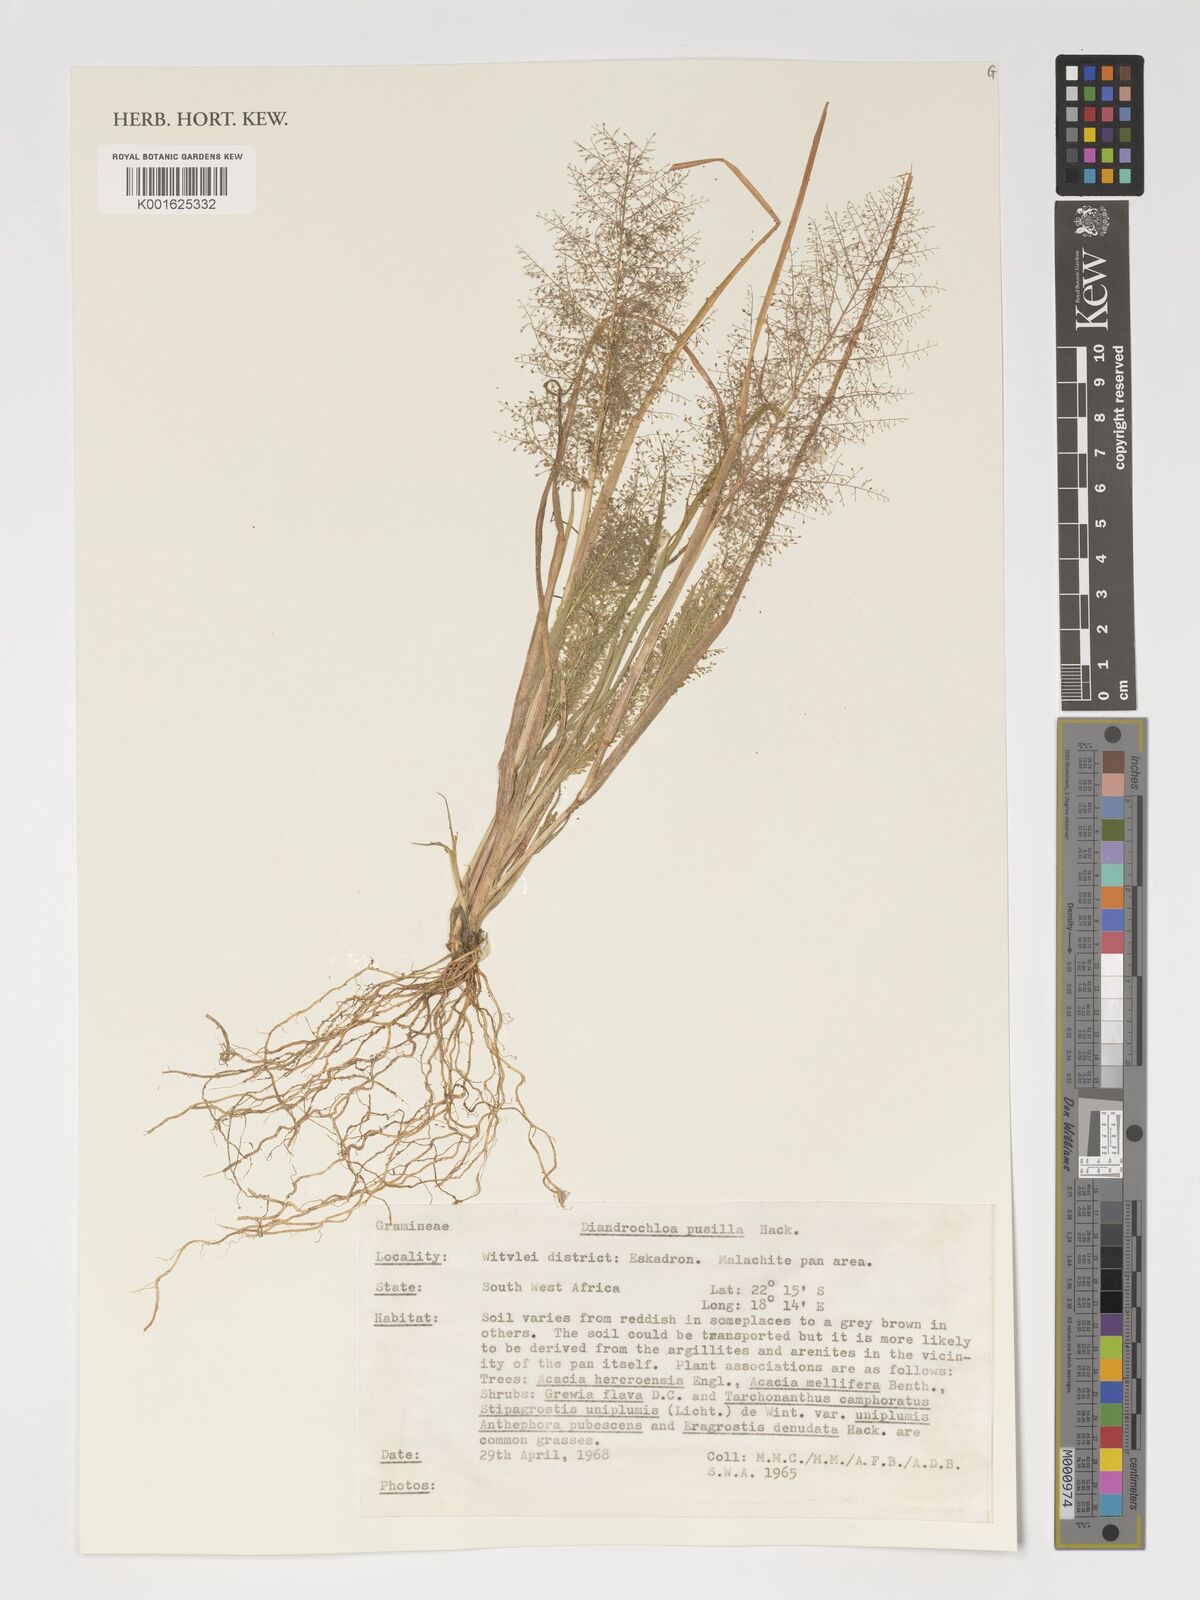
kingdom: Plantae
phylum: Tracheophyta
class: Liliopsida
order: Poales
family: Poaceae
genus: Eragrostis
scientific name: Eragrostis pusilla
